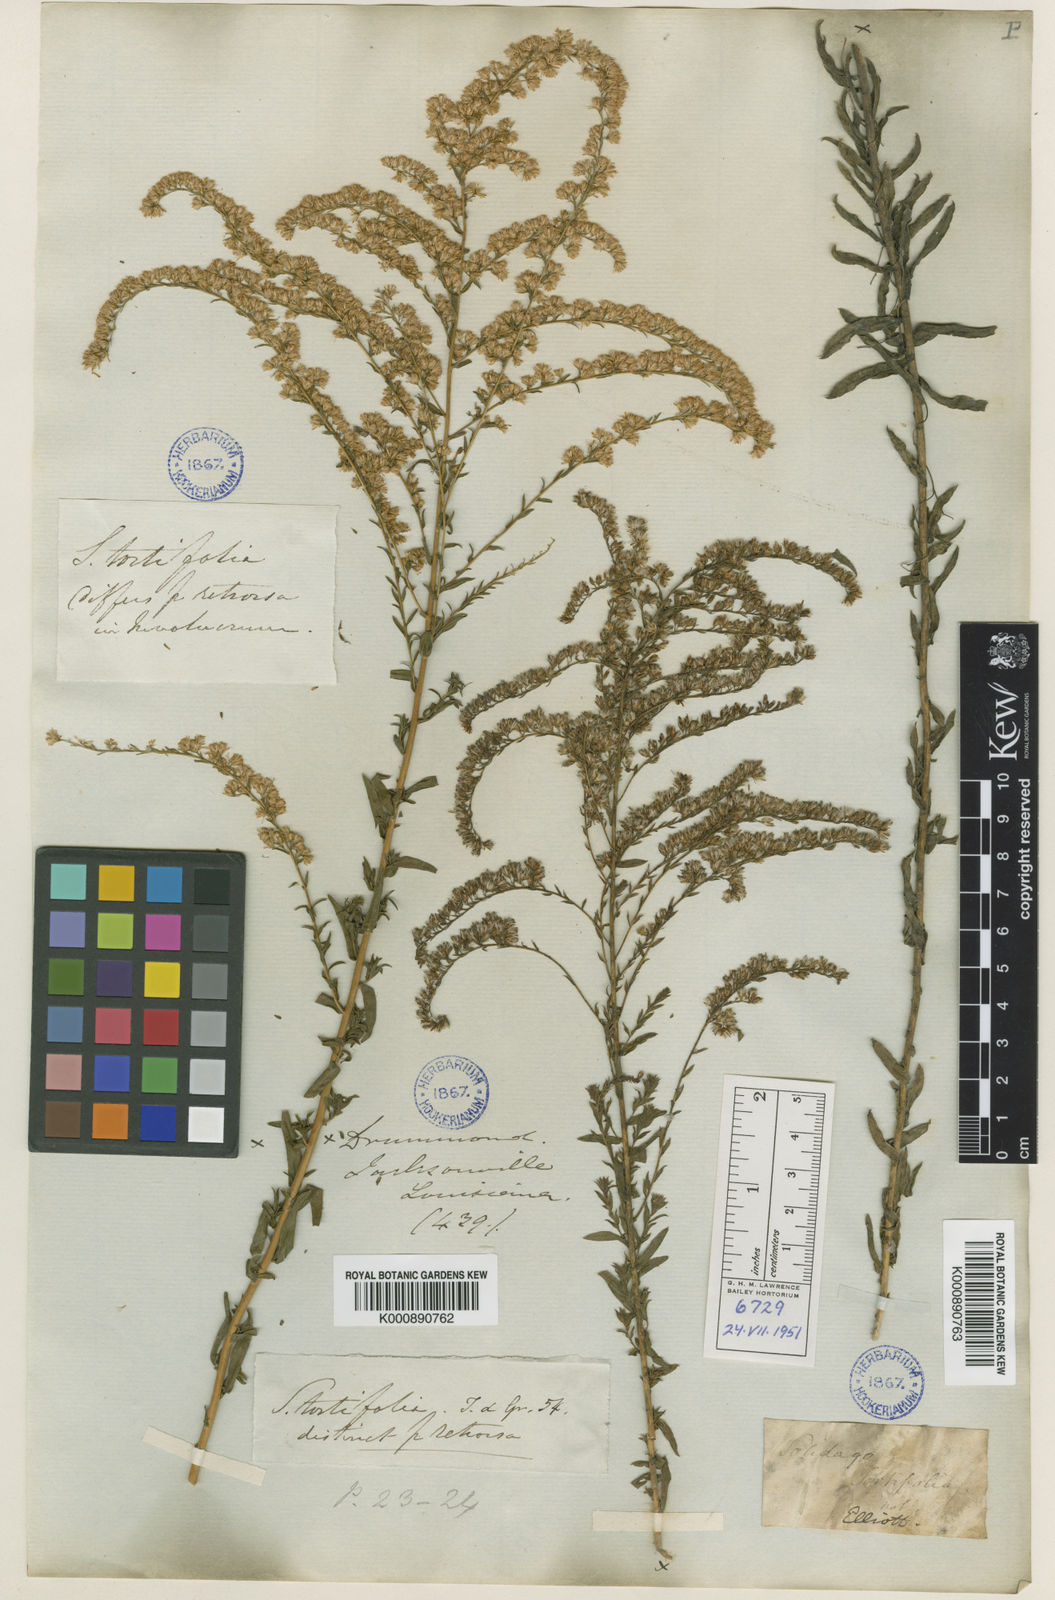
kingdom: Plantae
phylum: Tracheophyta
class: Magnoliopsida
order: Asterales
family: Asteraceae
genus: Solidago
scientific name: Solidago tortifolia
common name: Twisted-leaf goldenrod
